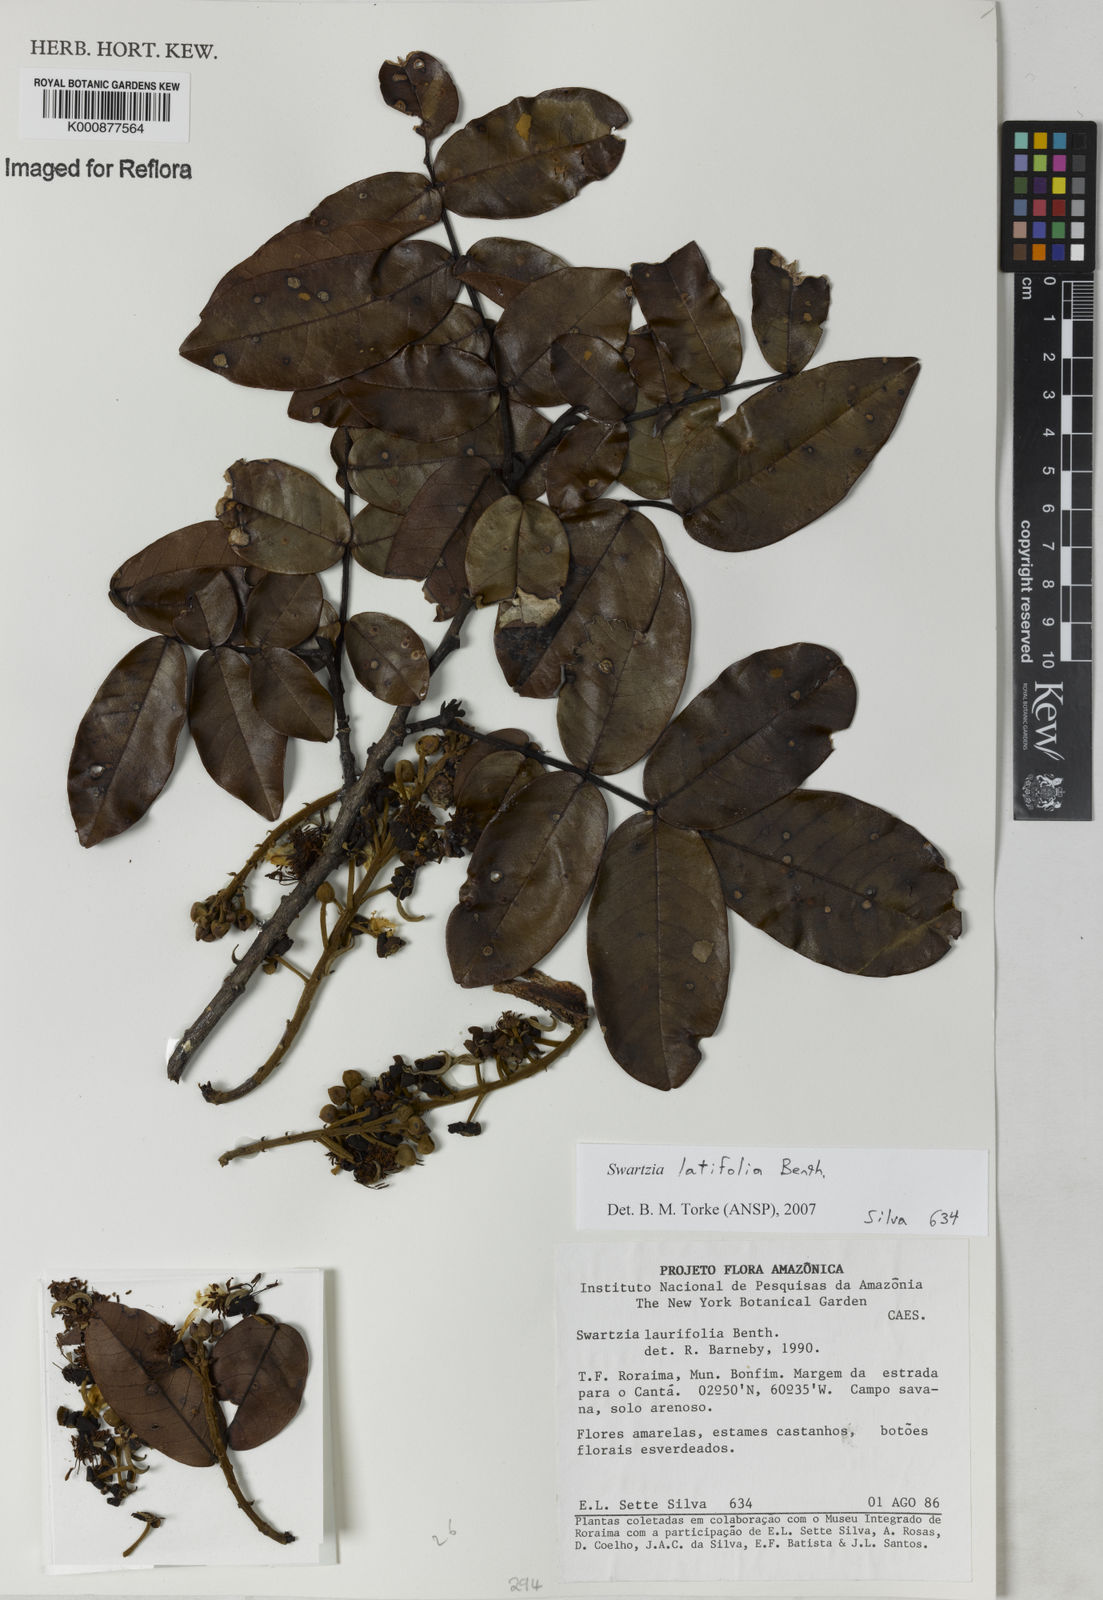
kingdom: Plantae
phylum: Tracheophyta
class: Magnoliopsida
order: Fabales
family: Fabaceae
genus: Swartzia
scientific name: Swartzia latifolia
